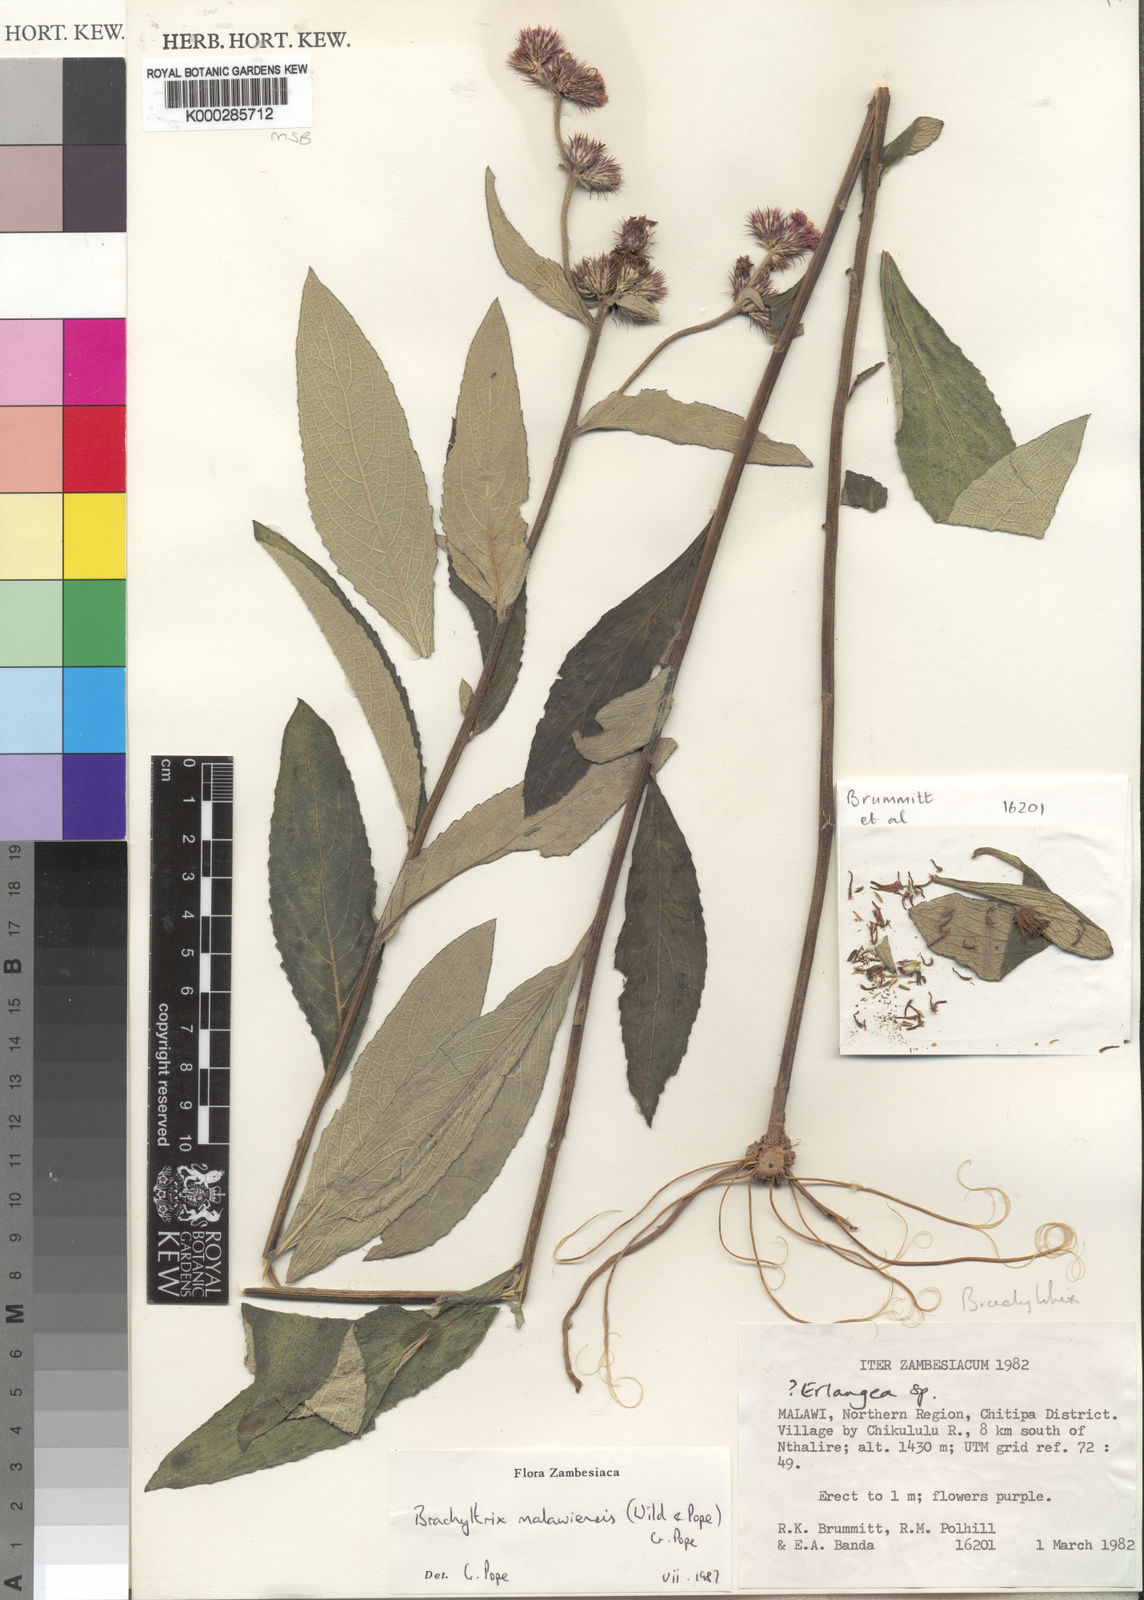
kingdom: Plantae
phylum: Tracheophyta
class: Magnoliopsida
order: Asterales
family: Asteraceae
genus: Brachythrix
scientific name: Brachythrix malawiensis
